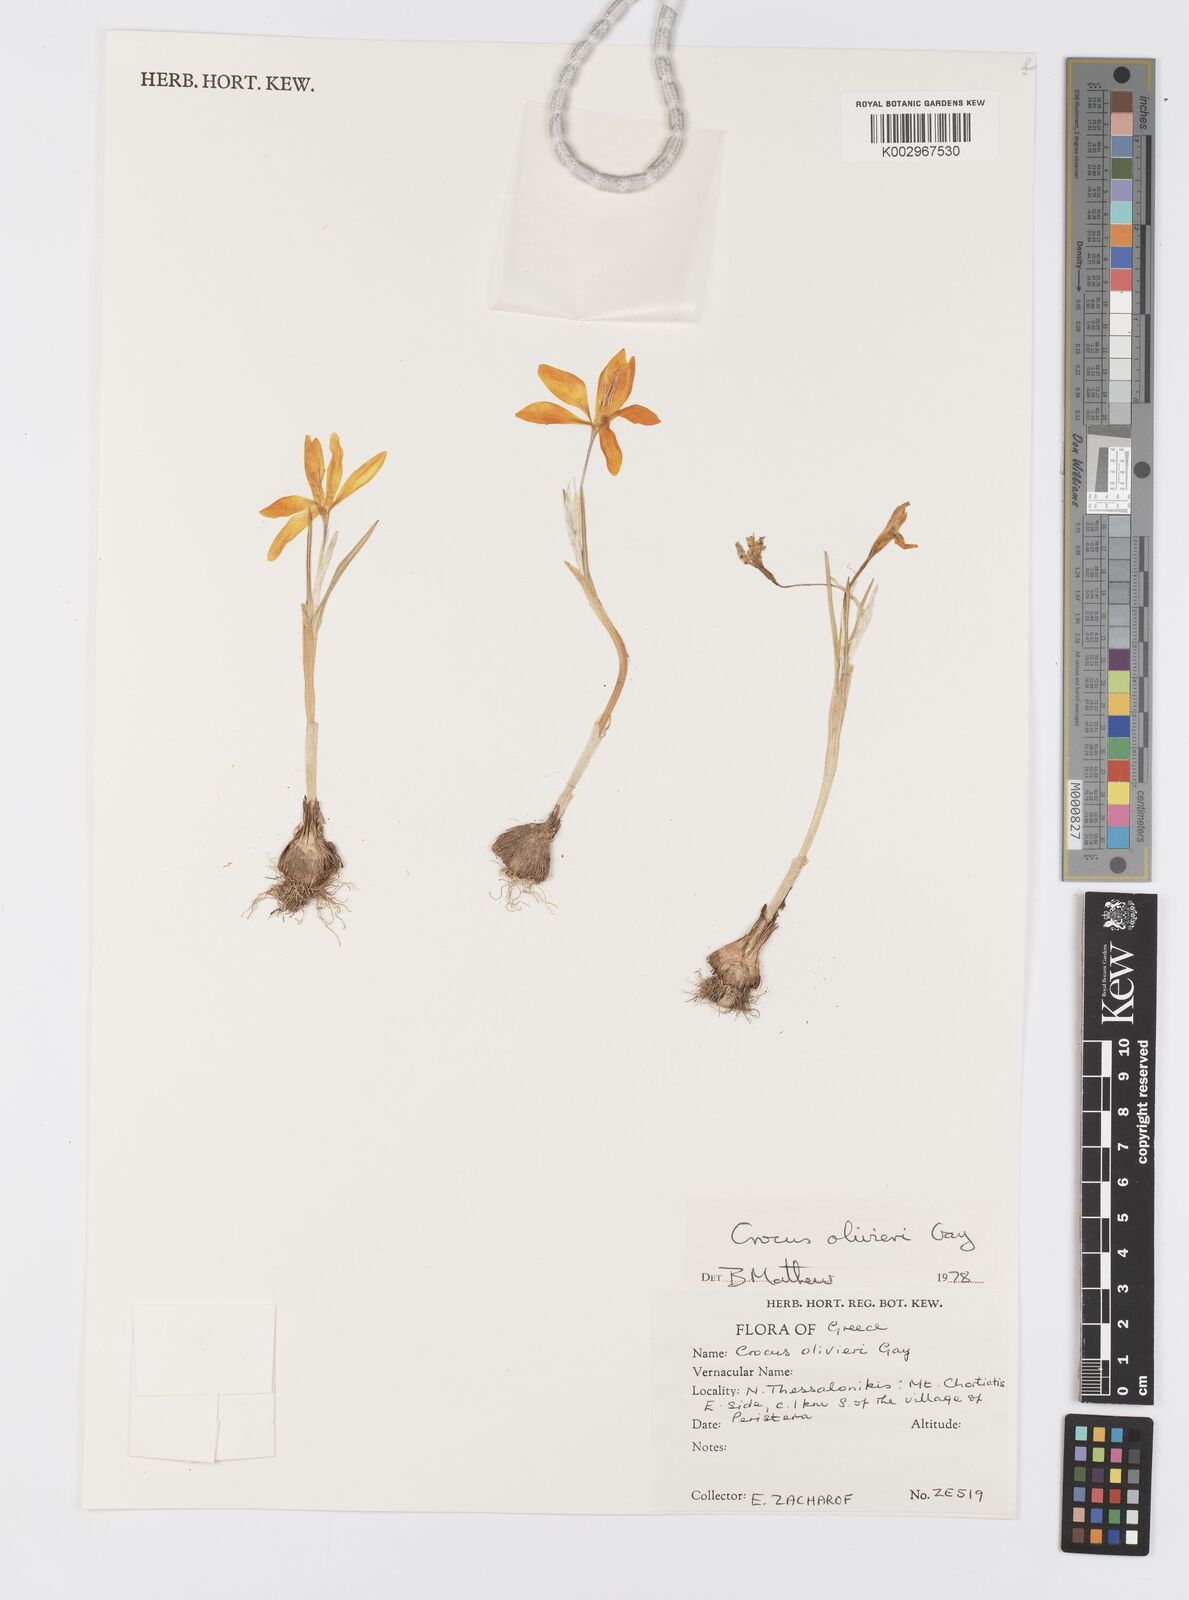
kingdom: Plantae
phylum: Tracheophyta
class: Liliopsida
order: Asparagales
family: Iridaceae
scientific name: Iridaceae
